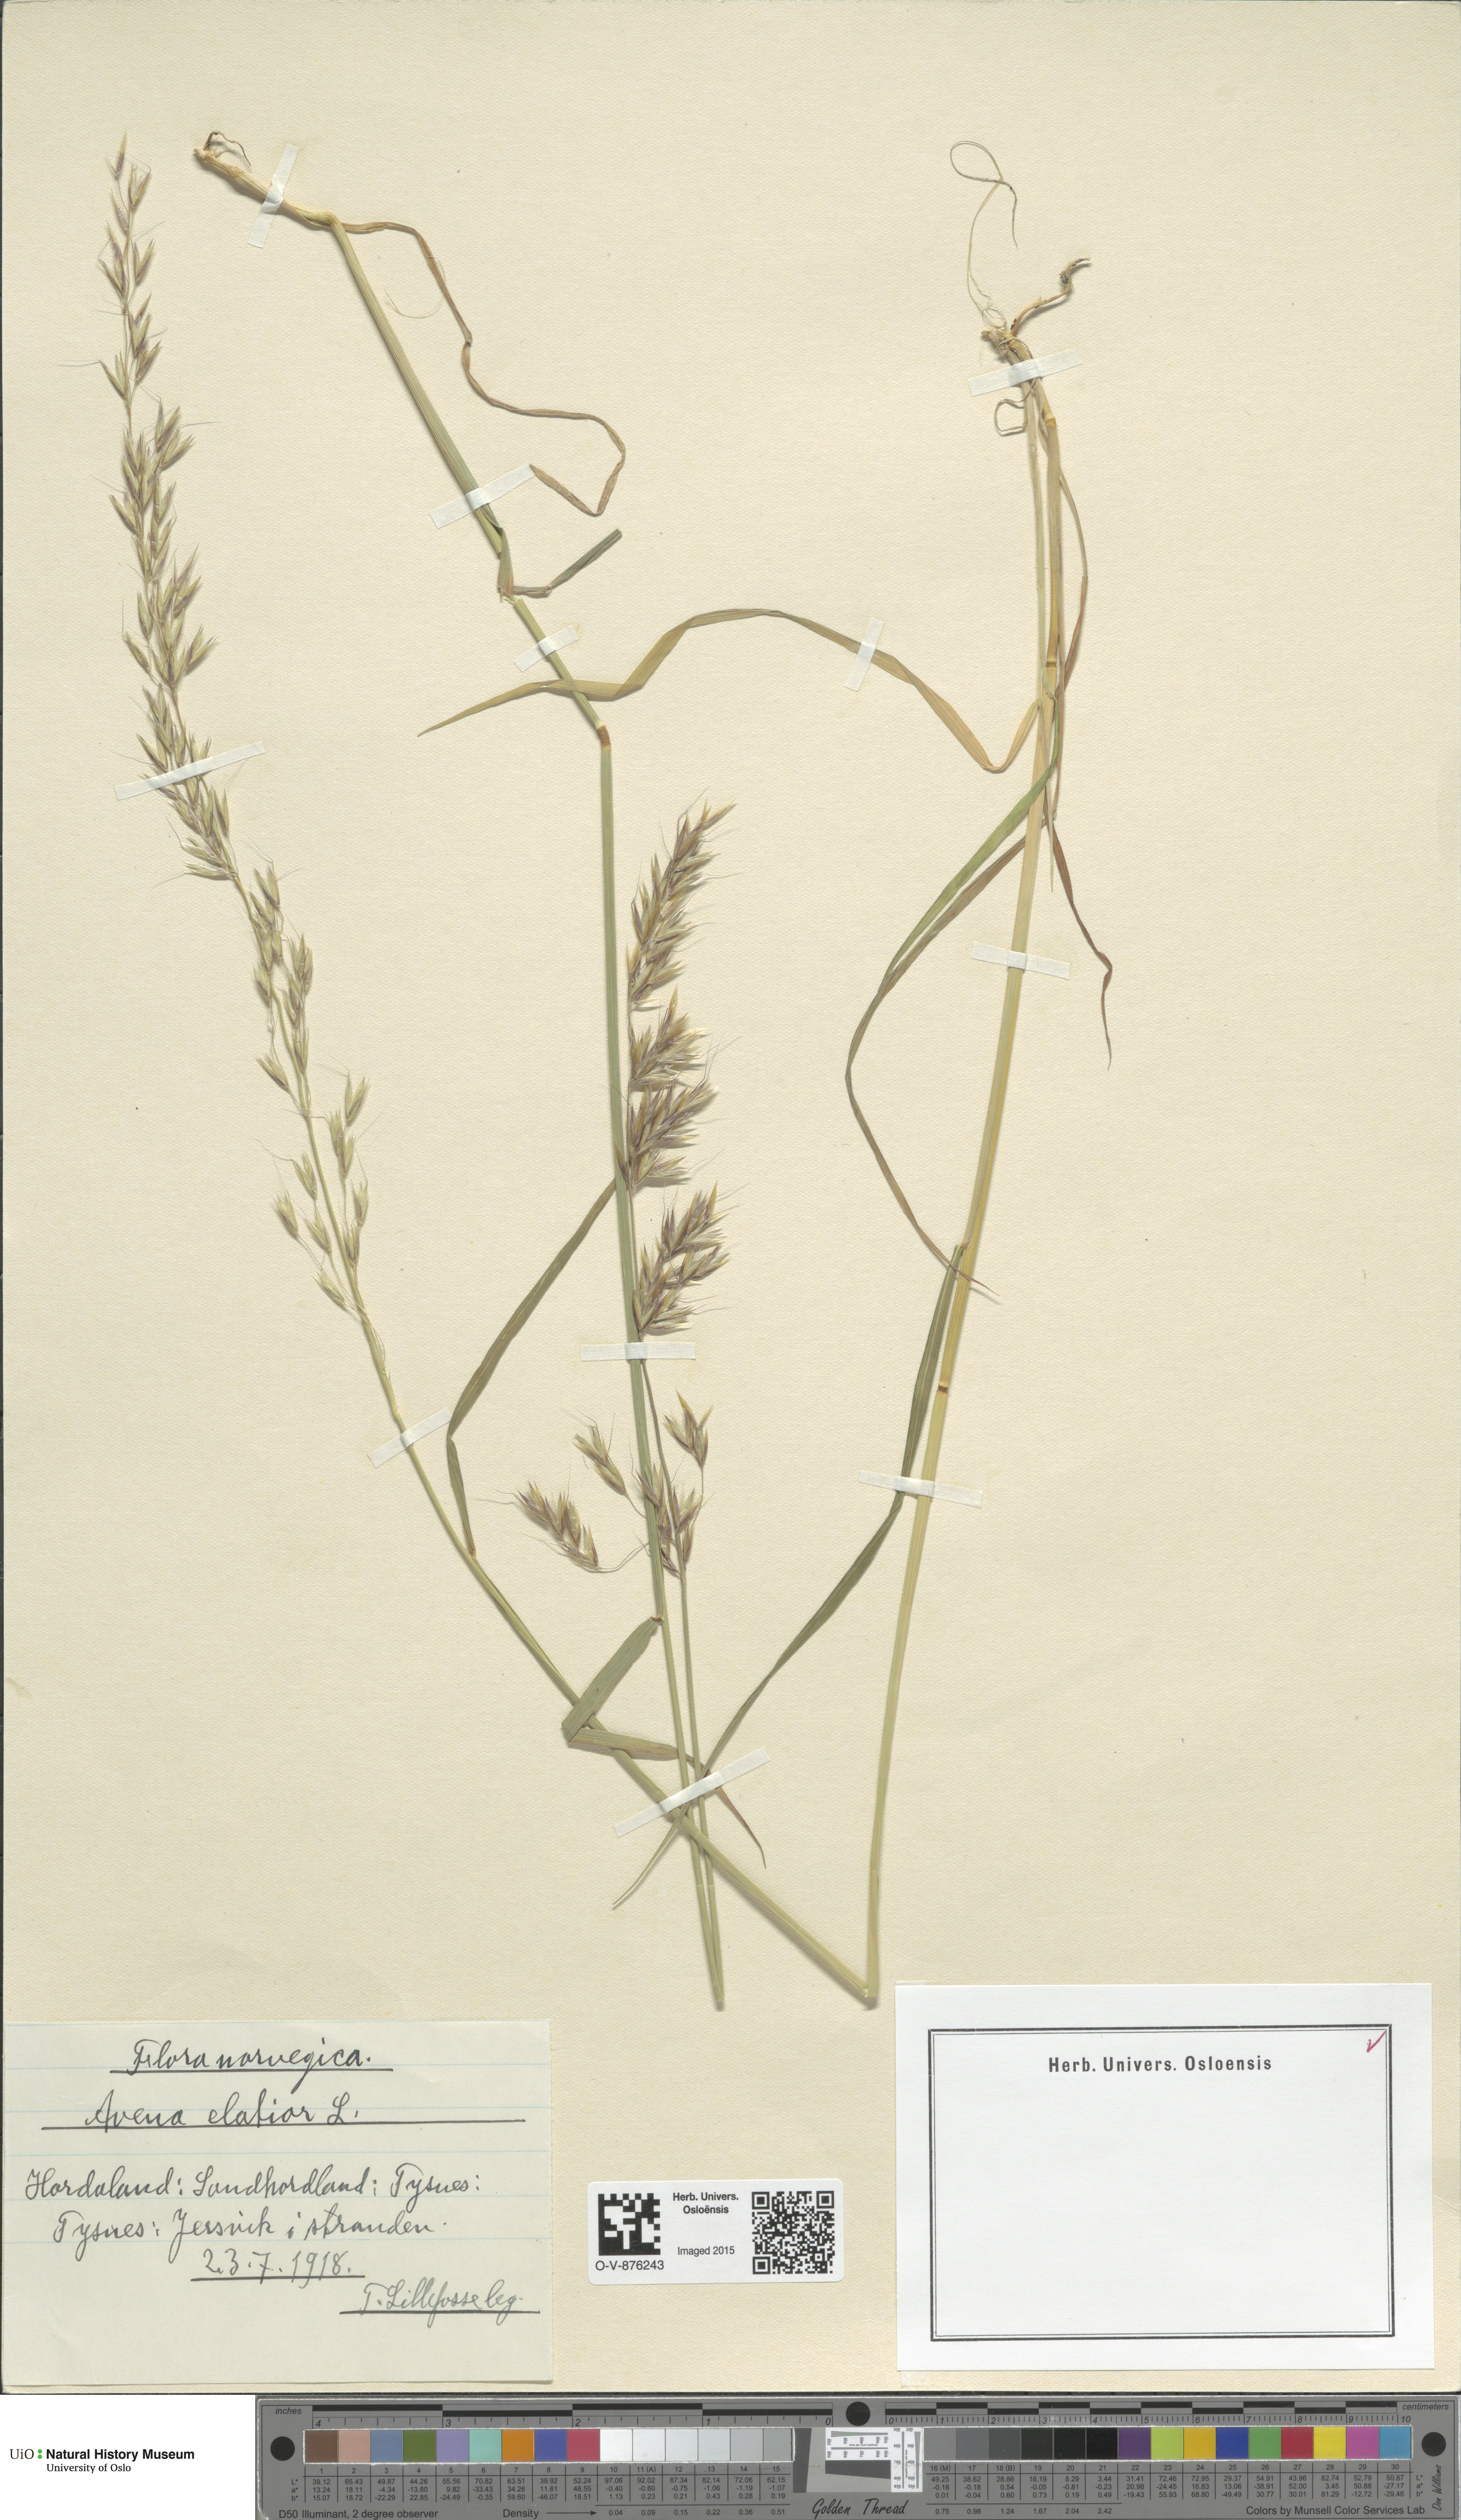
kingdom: Plantae
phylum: Tracheophyta
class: Liliopsida
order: Poales
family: Poaceae
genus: Arrhenatherum
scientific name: Arrhenatherum elatius
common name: Tall oatgrass
